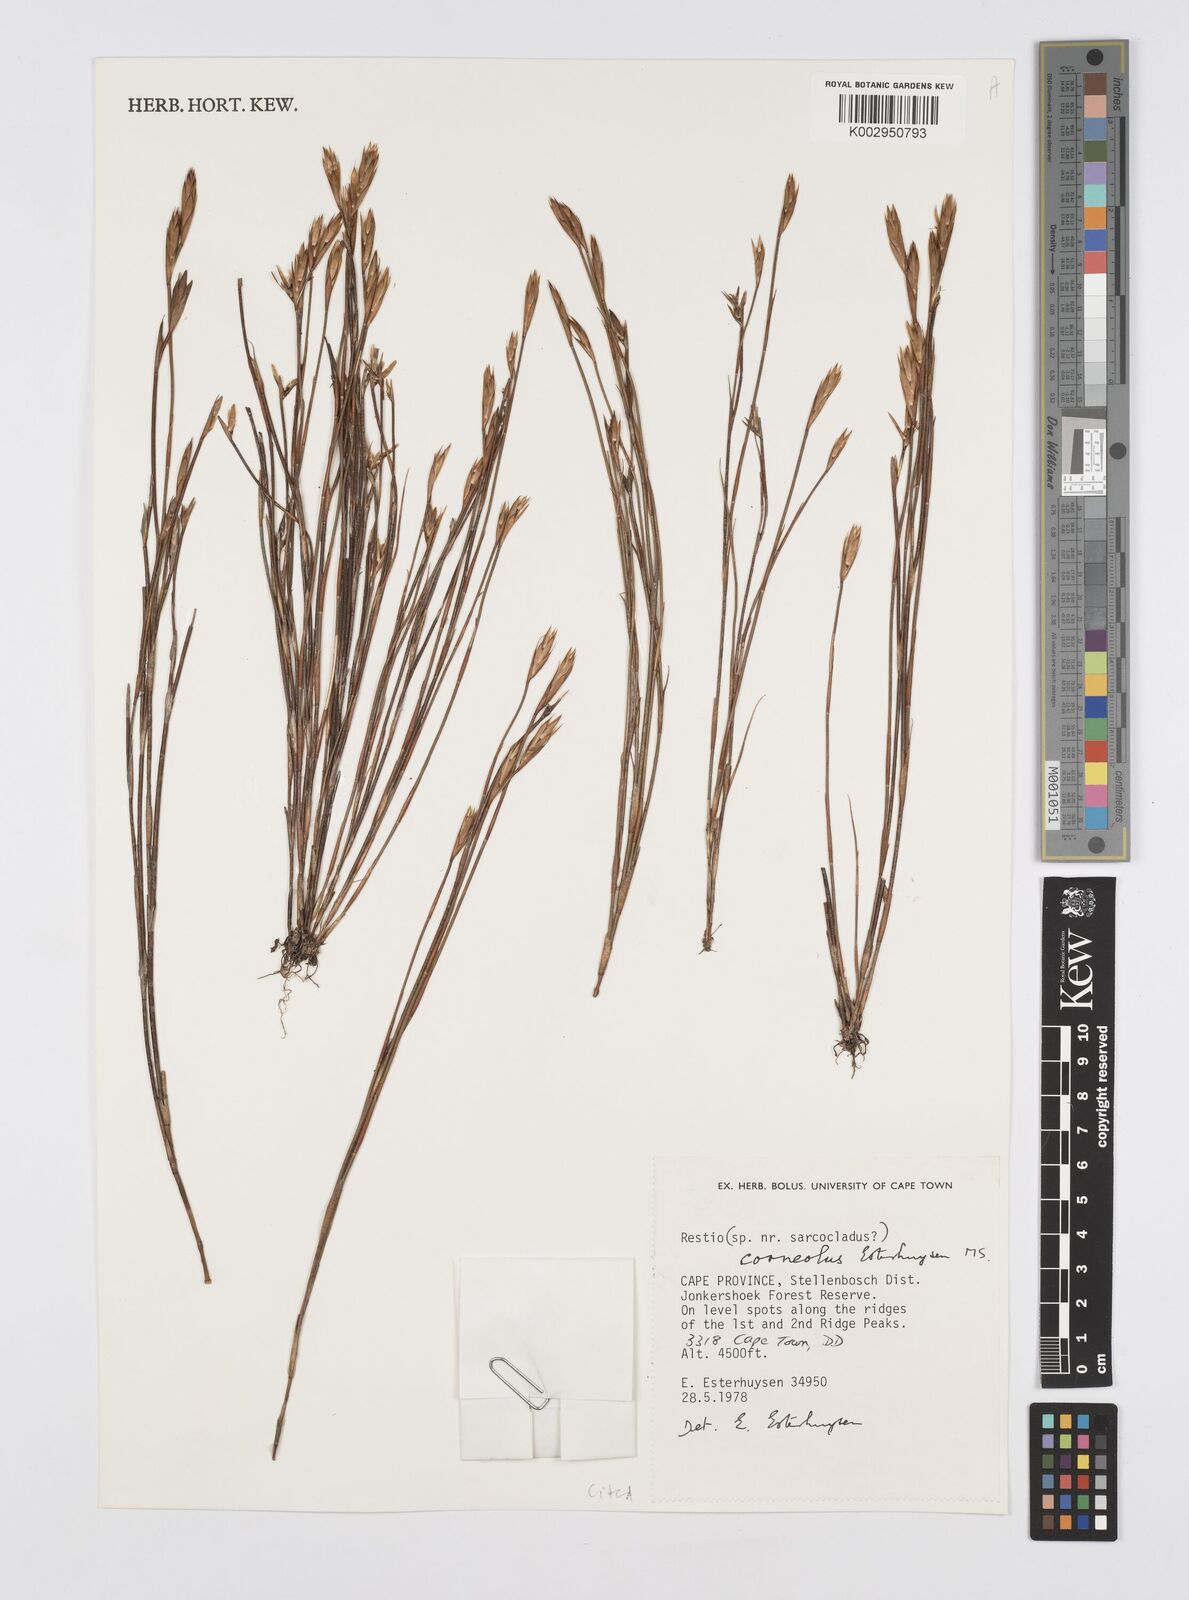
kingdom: Plantae
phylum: Tracheophyta
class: Liliopsida
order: Poales
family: Restionaceae
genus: Restio
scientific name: Restio corneolus
